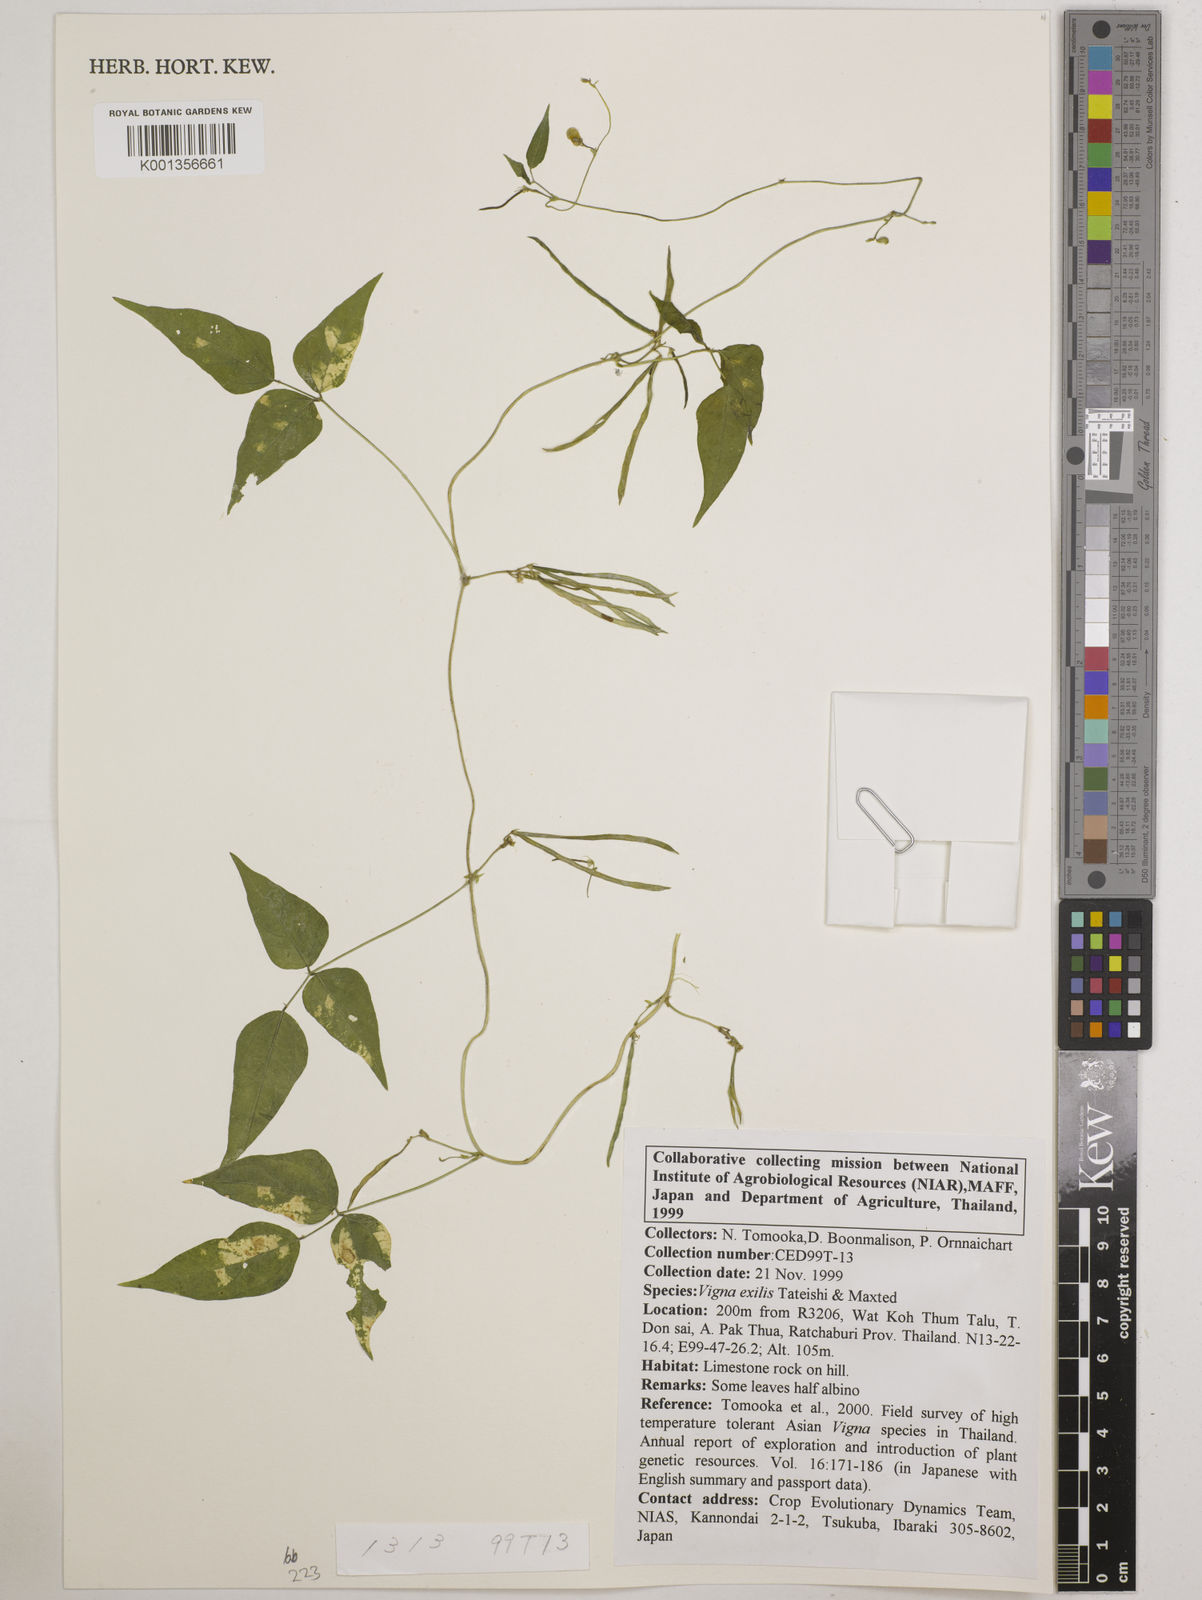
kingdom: Plantae
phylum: Tracheophyta
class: Magnoliopsida
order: Fabales
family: Fabaceae
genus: Vigna
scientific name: Vigna
